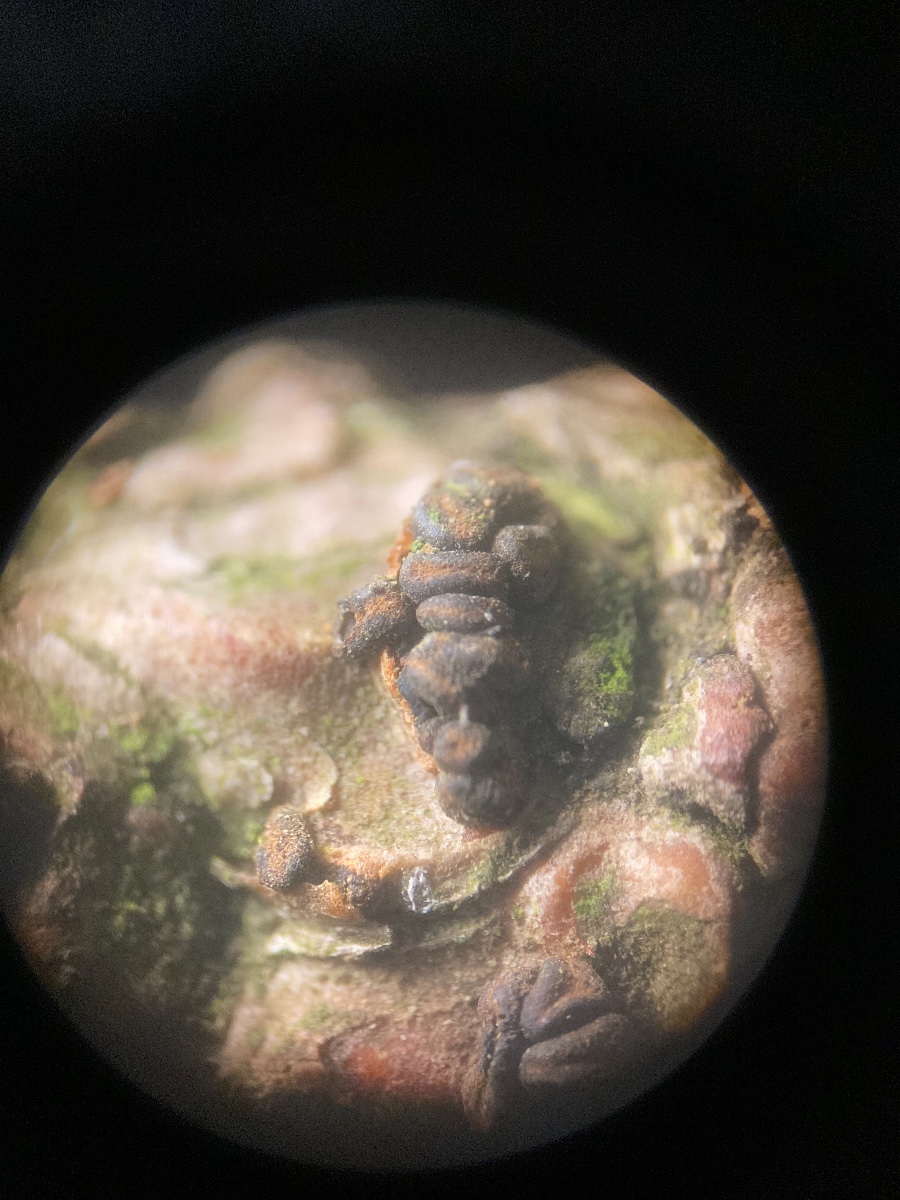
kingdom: Fungi
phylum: Ascomycota
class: Leotiomycetes
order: Helotiales
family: Cenangiaceae
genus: Cenangium
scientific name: Cenangium ferruginosum
